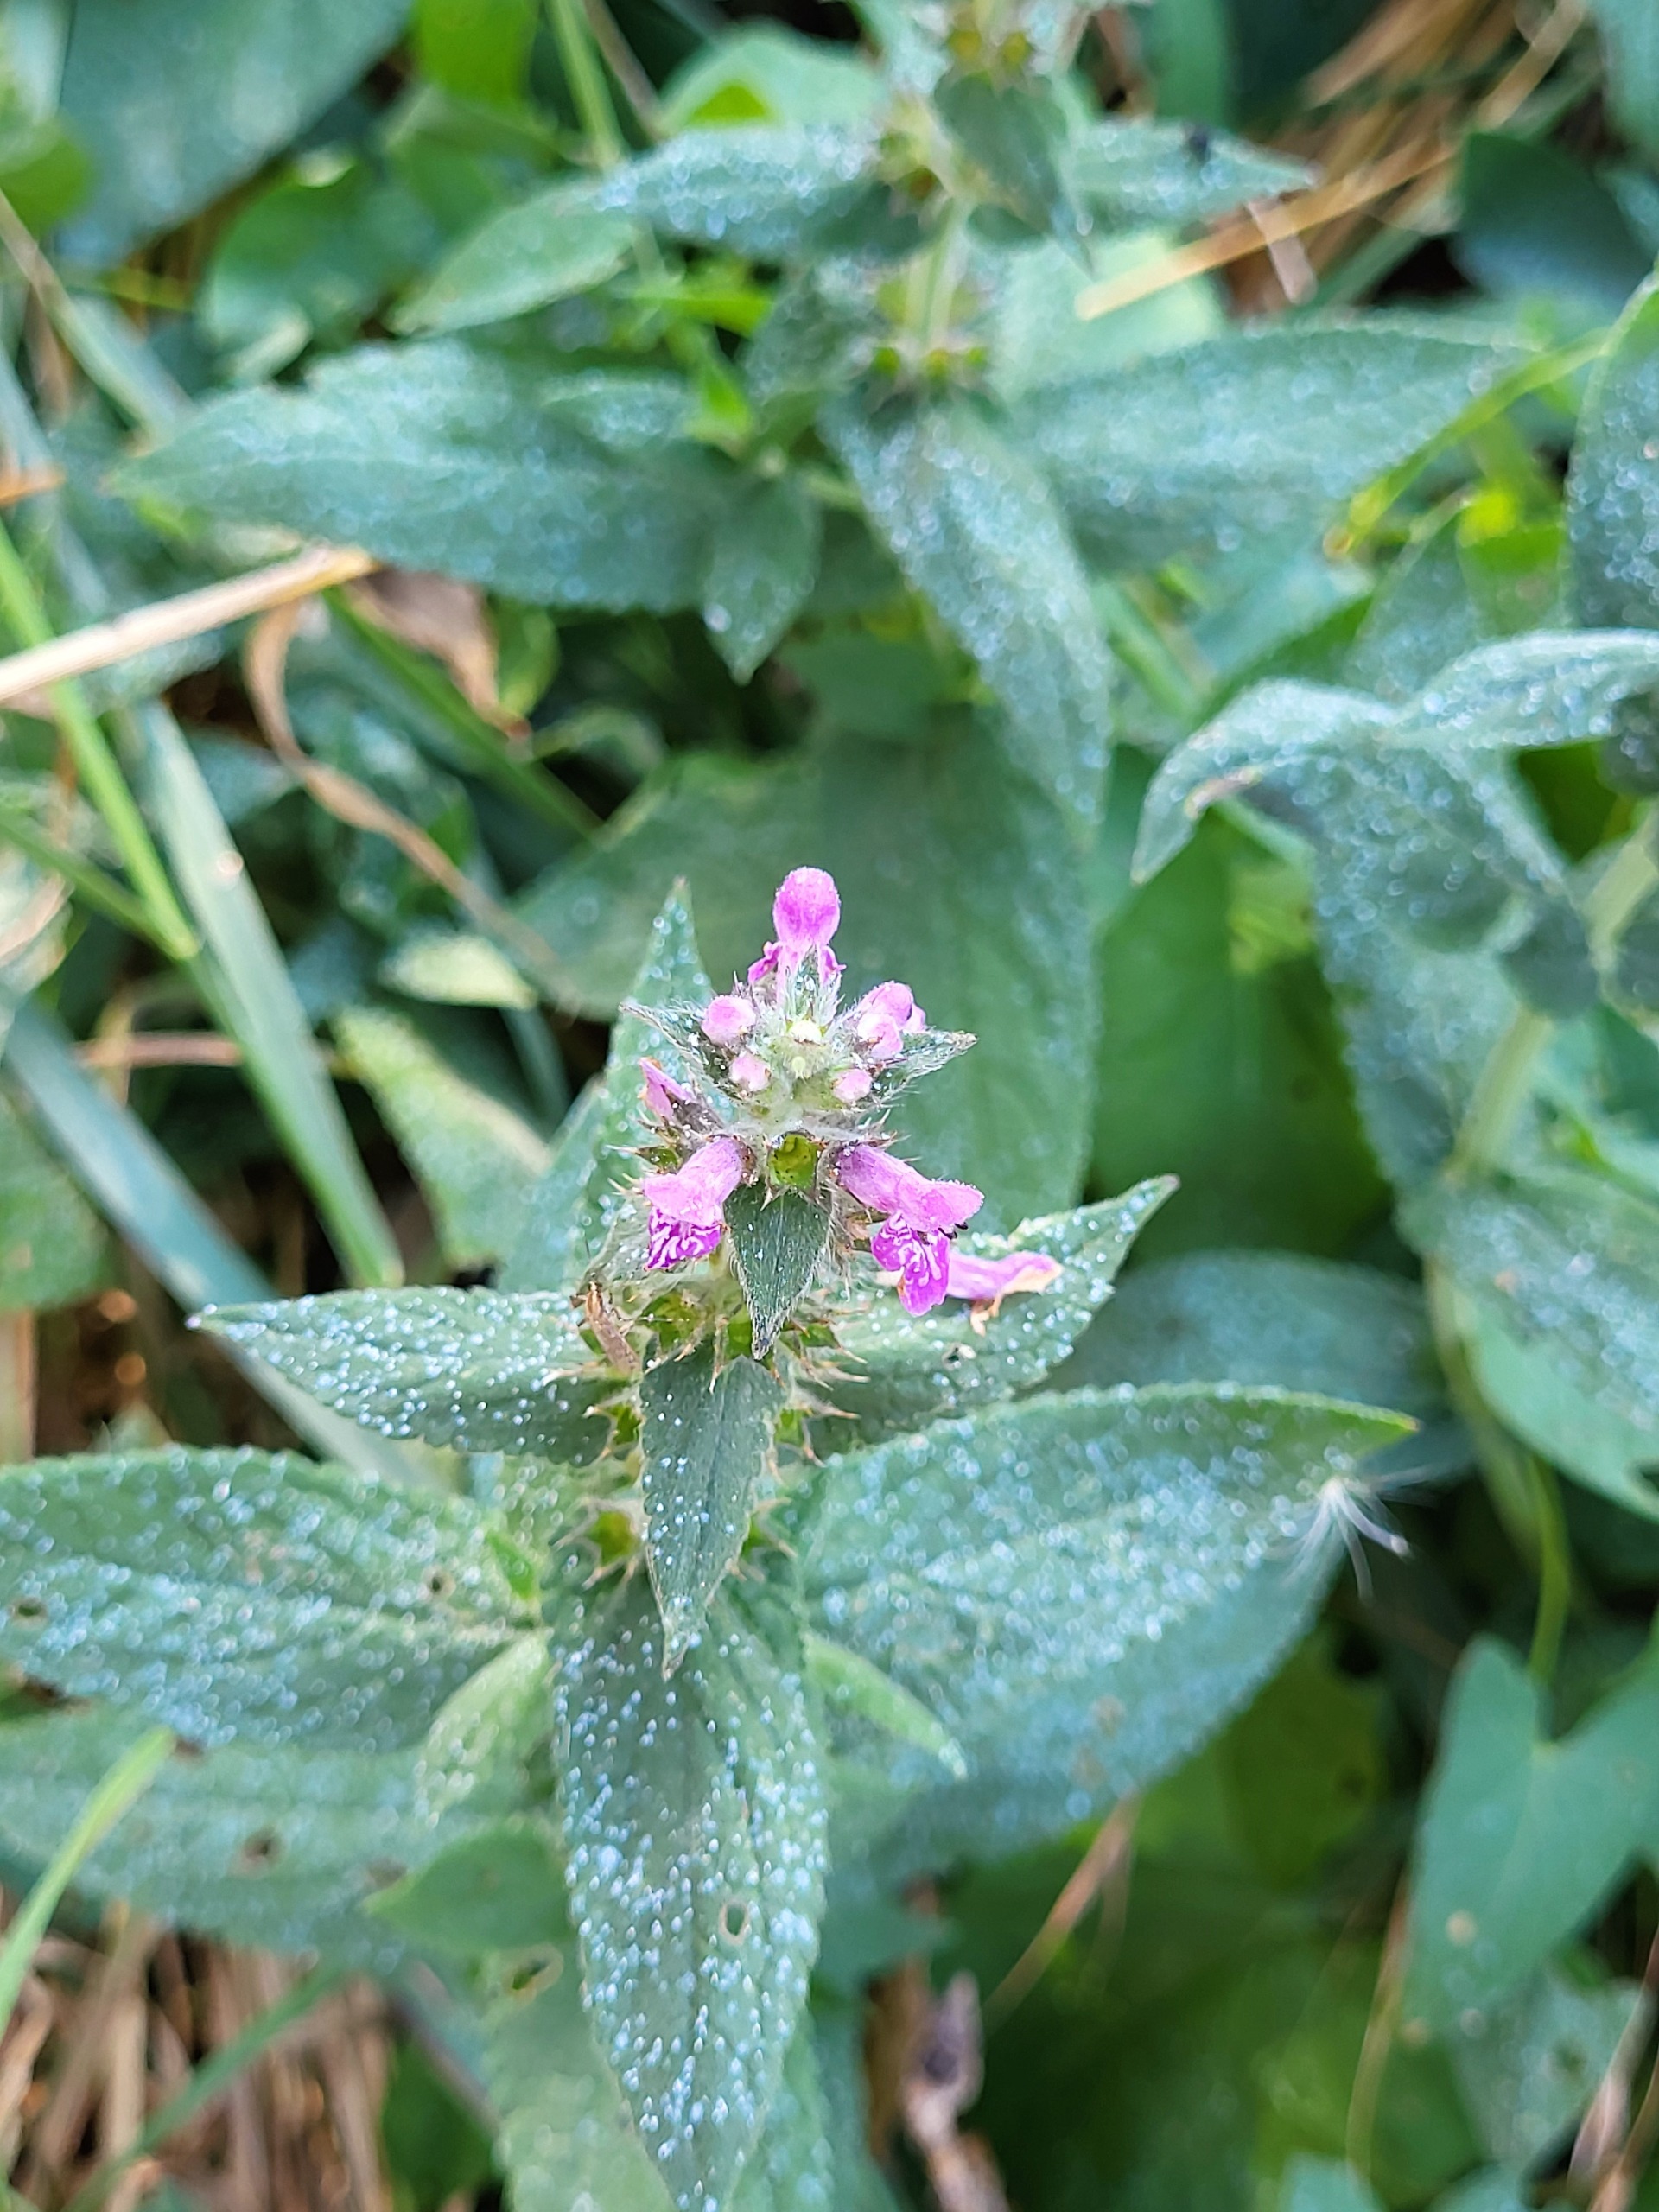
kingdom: Plantae
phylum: Tracheophyta
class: Magnoliopsida
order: Lamiales
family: Lamiaceae
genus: Stachys
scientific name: Stachys palustris
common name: Kær-galtetand
